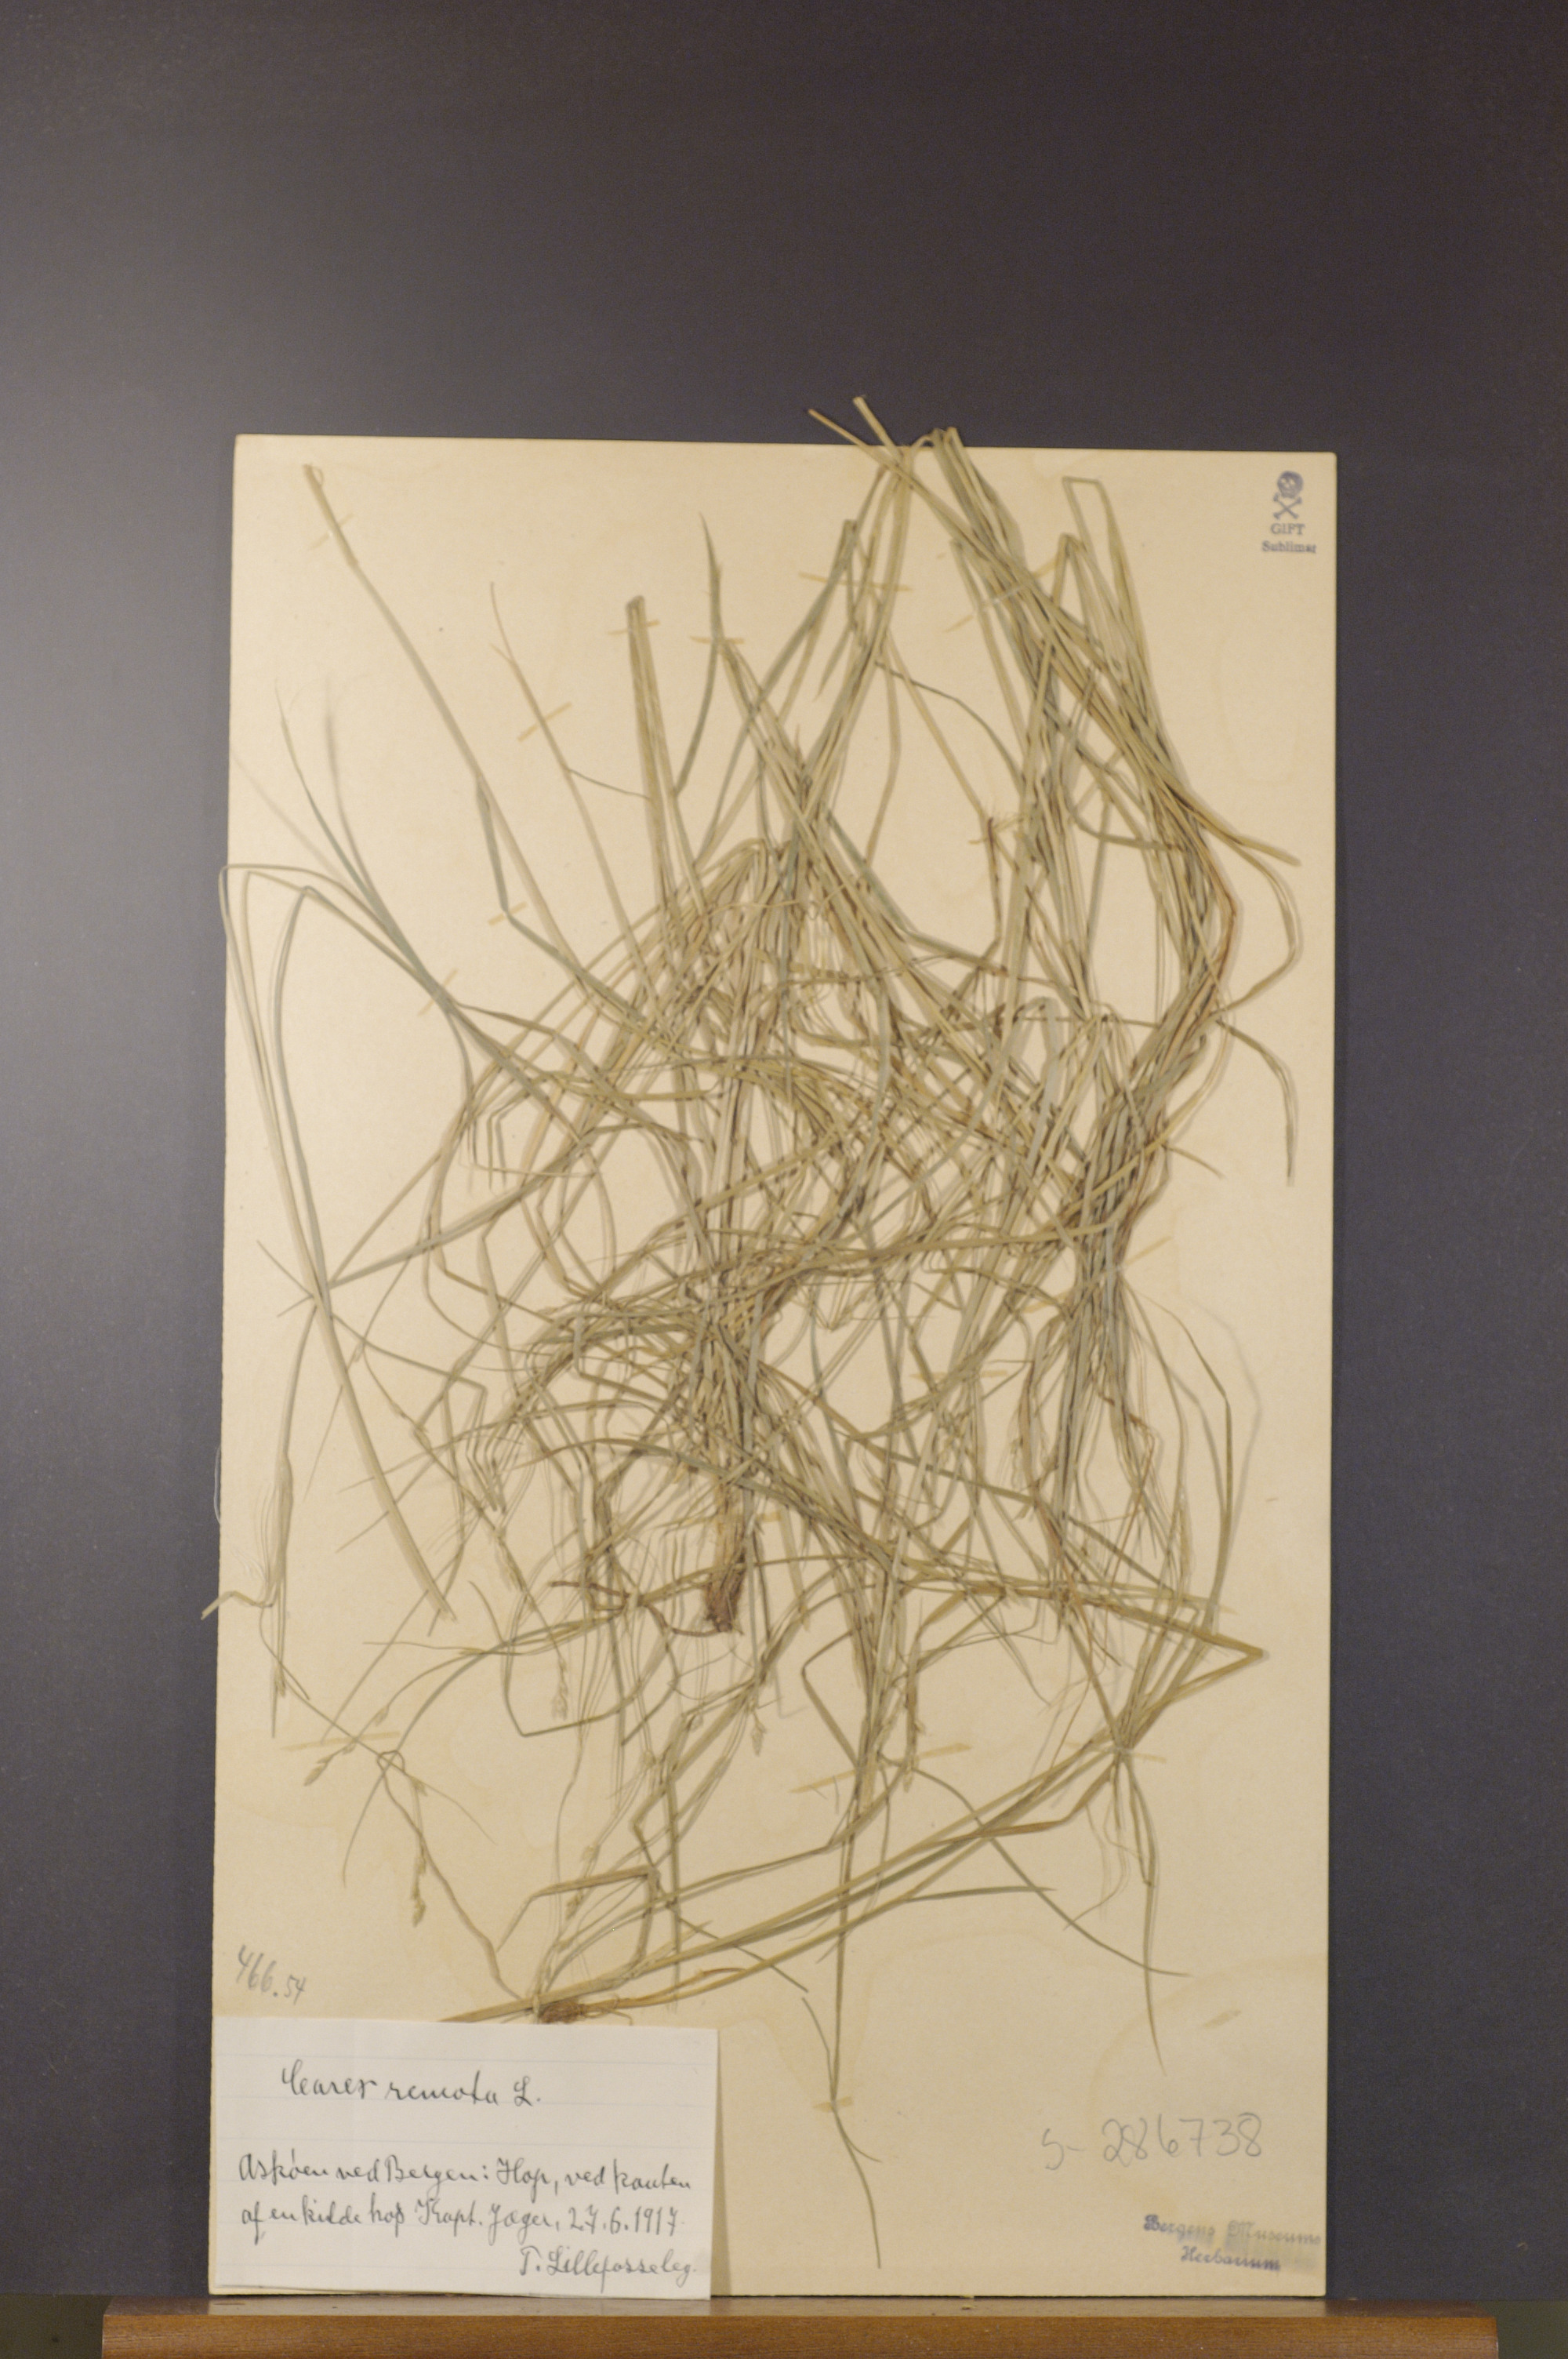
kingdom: Plantae
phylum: Tracheophyta
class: Liliopsida
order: Poales
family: Cyperaceae
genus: Carex
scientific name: Carex remota
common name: Remote sedge
